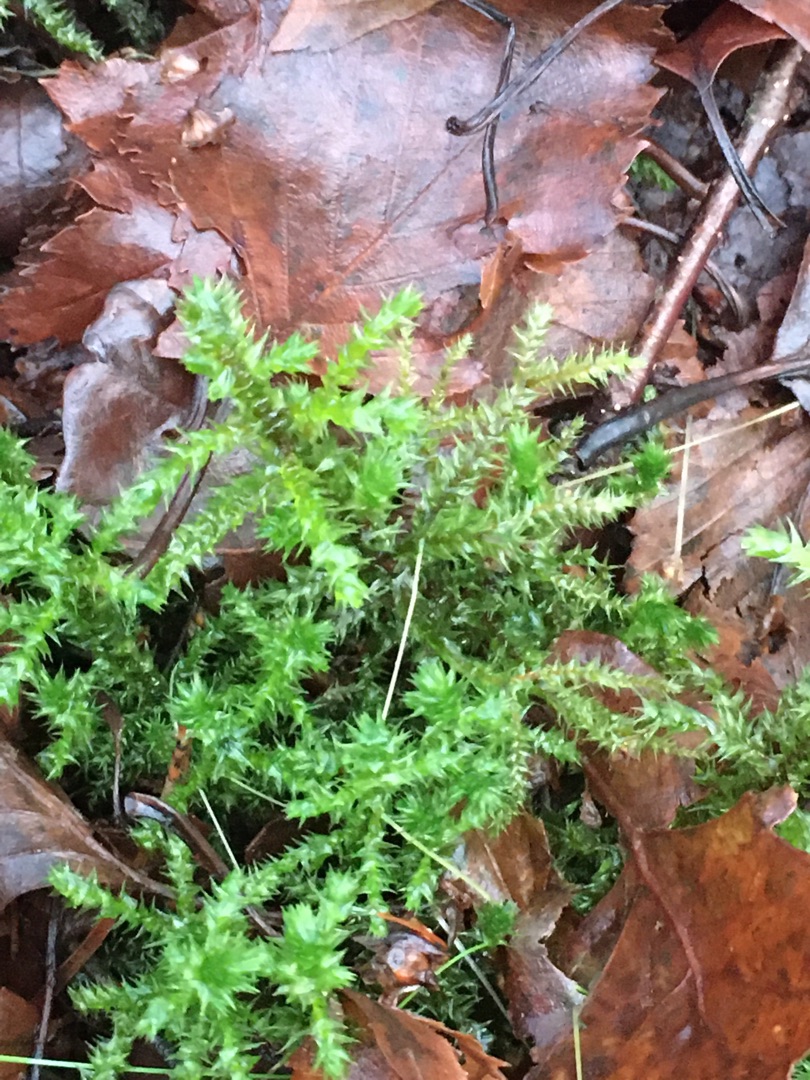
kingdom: Plantae
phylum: Bryophyta
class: Bryopsida
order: Hypnales
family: Hylocomiaceae
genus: Hylocomiadelphus
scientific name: Hylocomiadelphus triquetrus
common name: Stor kransemos
